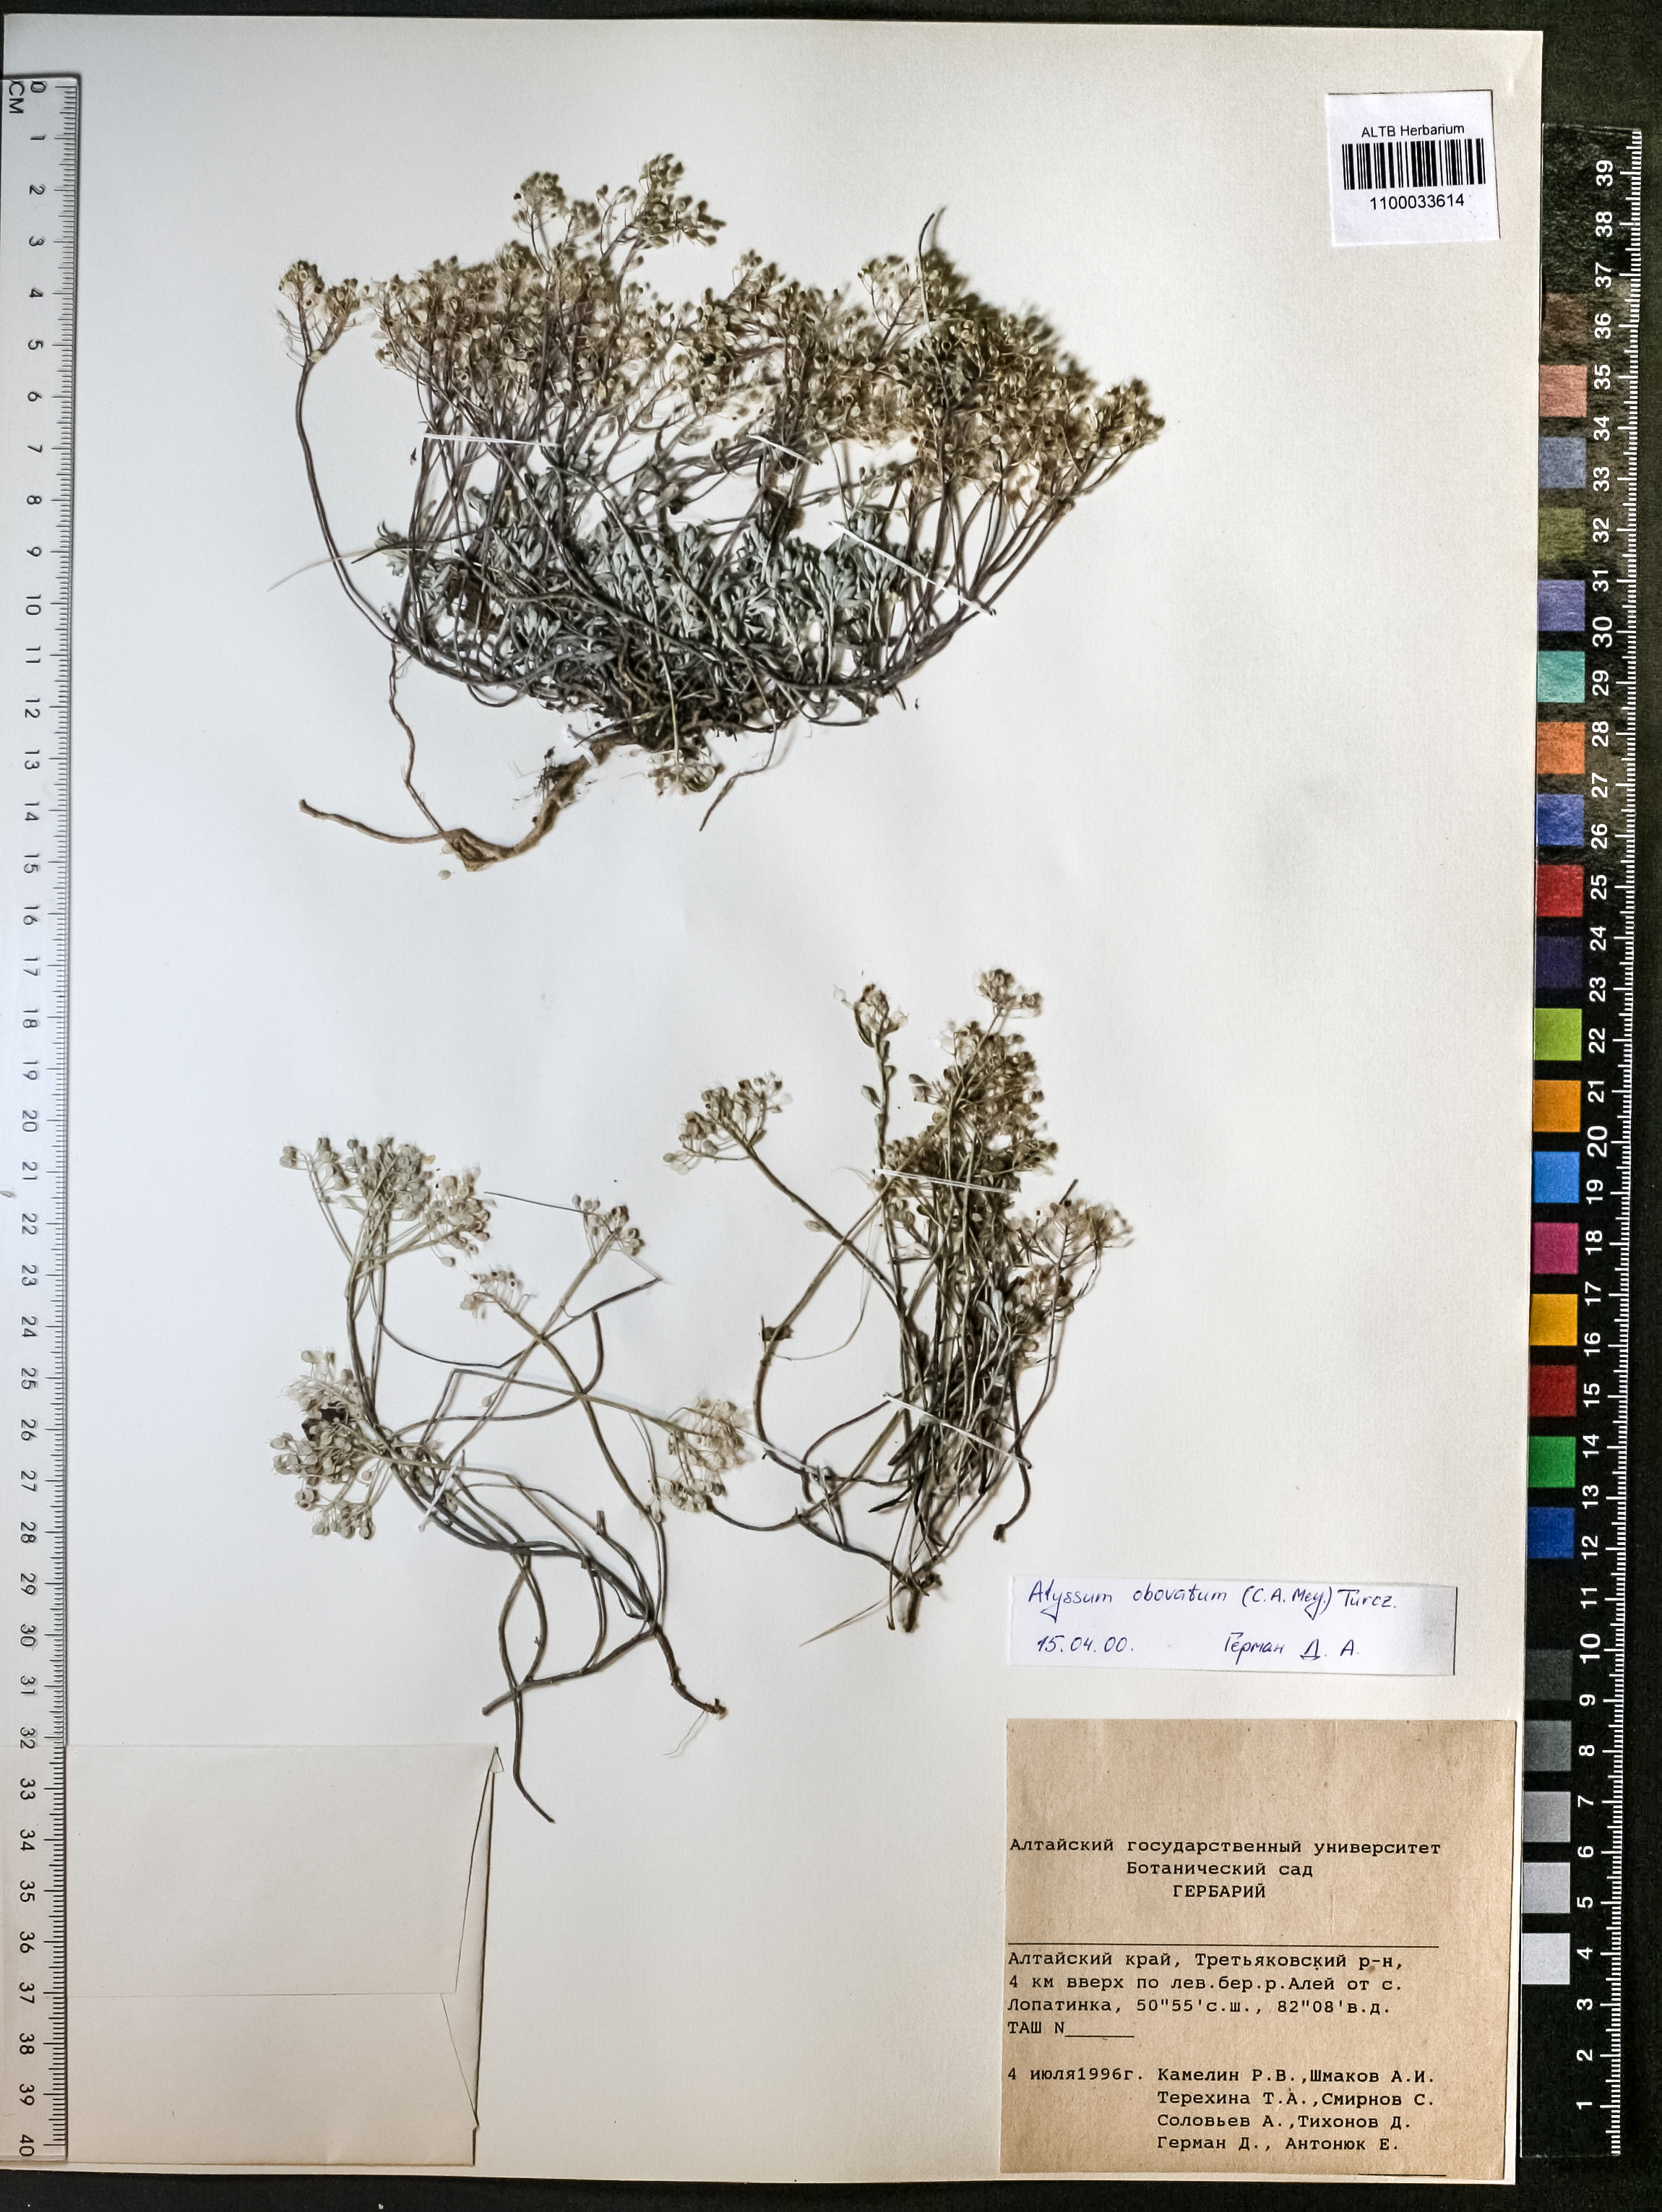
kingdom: Plantae
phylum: Tracheophyta
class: Magnoliopsida
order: Brassicales
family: Brassicaceae
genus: Odontarrhena
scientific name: Odontarrhena obovata
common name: American alyssum
